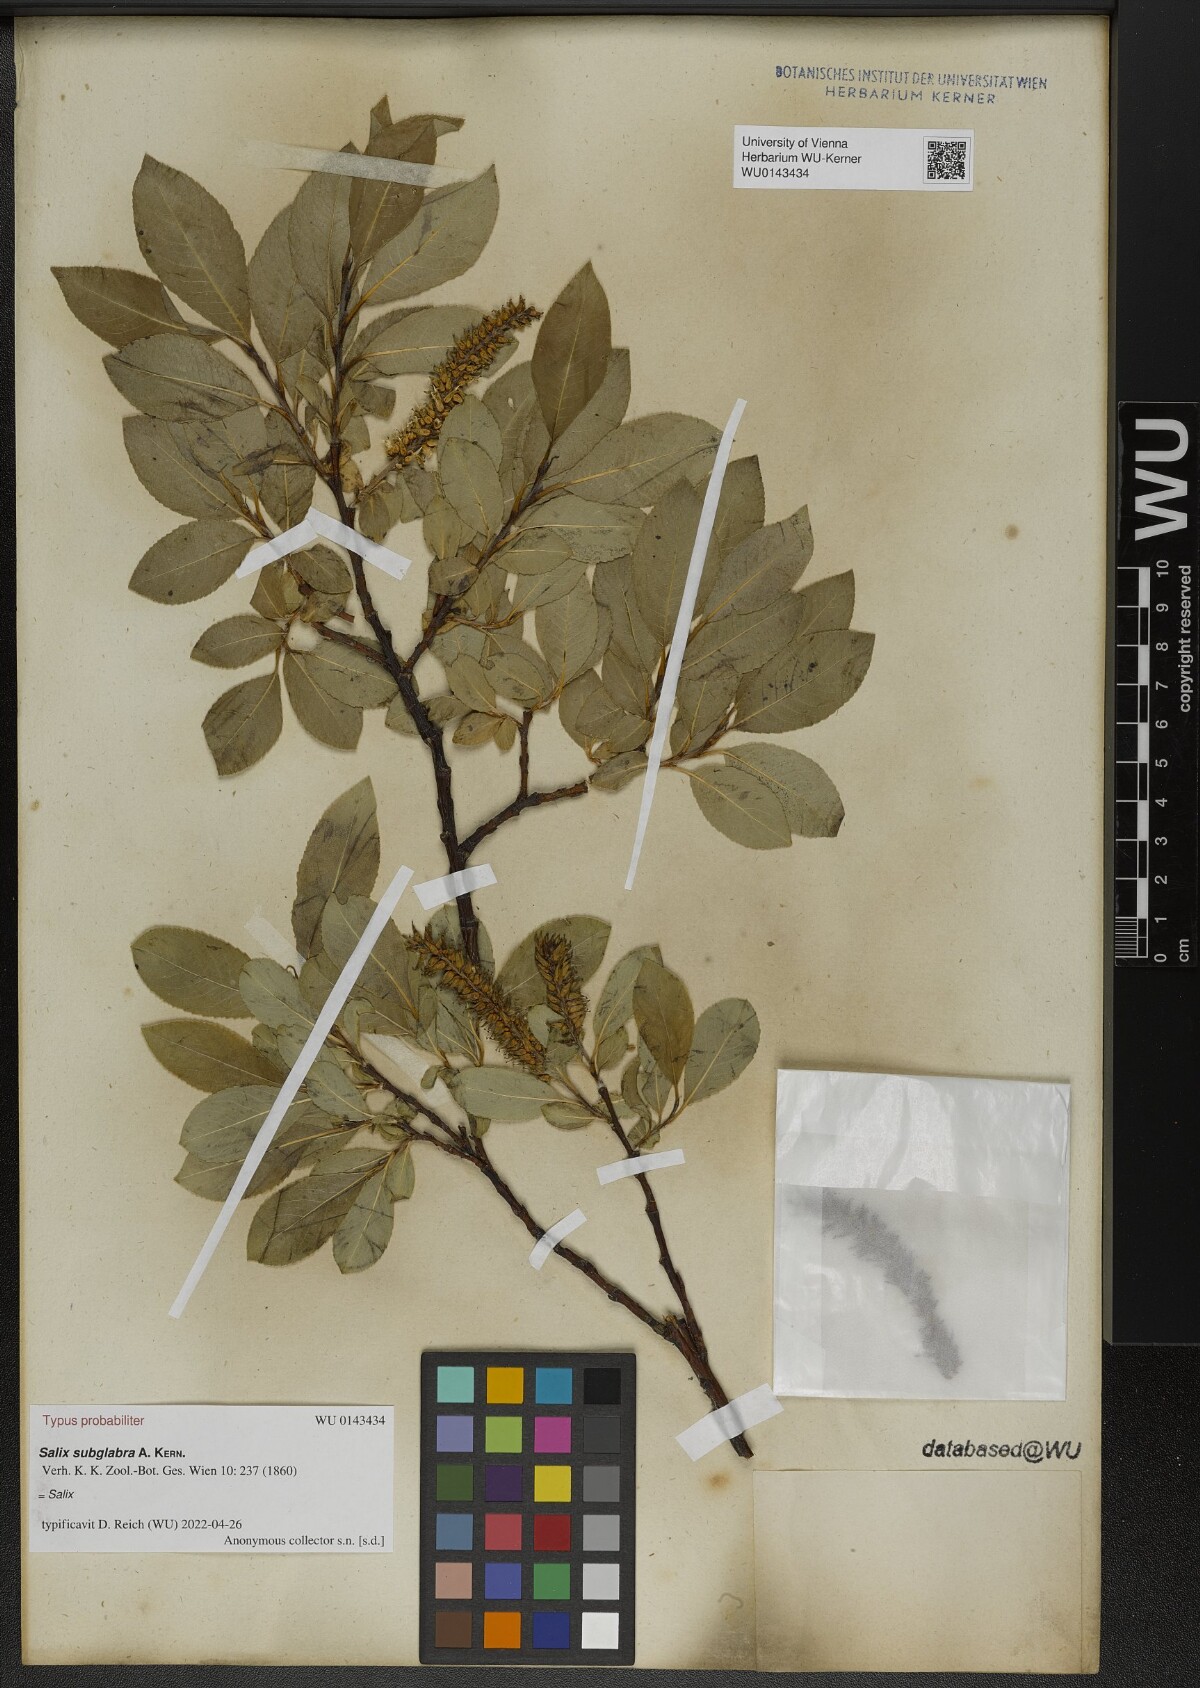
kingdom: Plantae
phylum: Tracheophyta
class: Magnoliopsida
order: Malpighiales
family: Salicaceae
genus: Salix
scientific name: Salix subglabra
